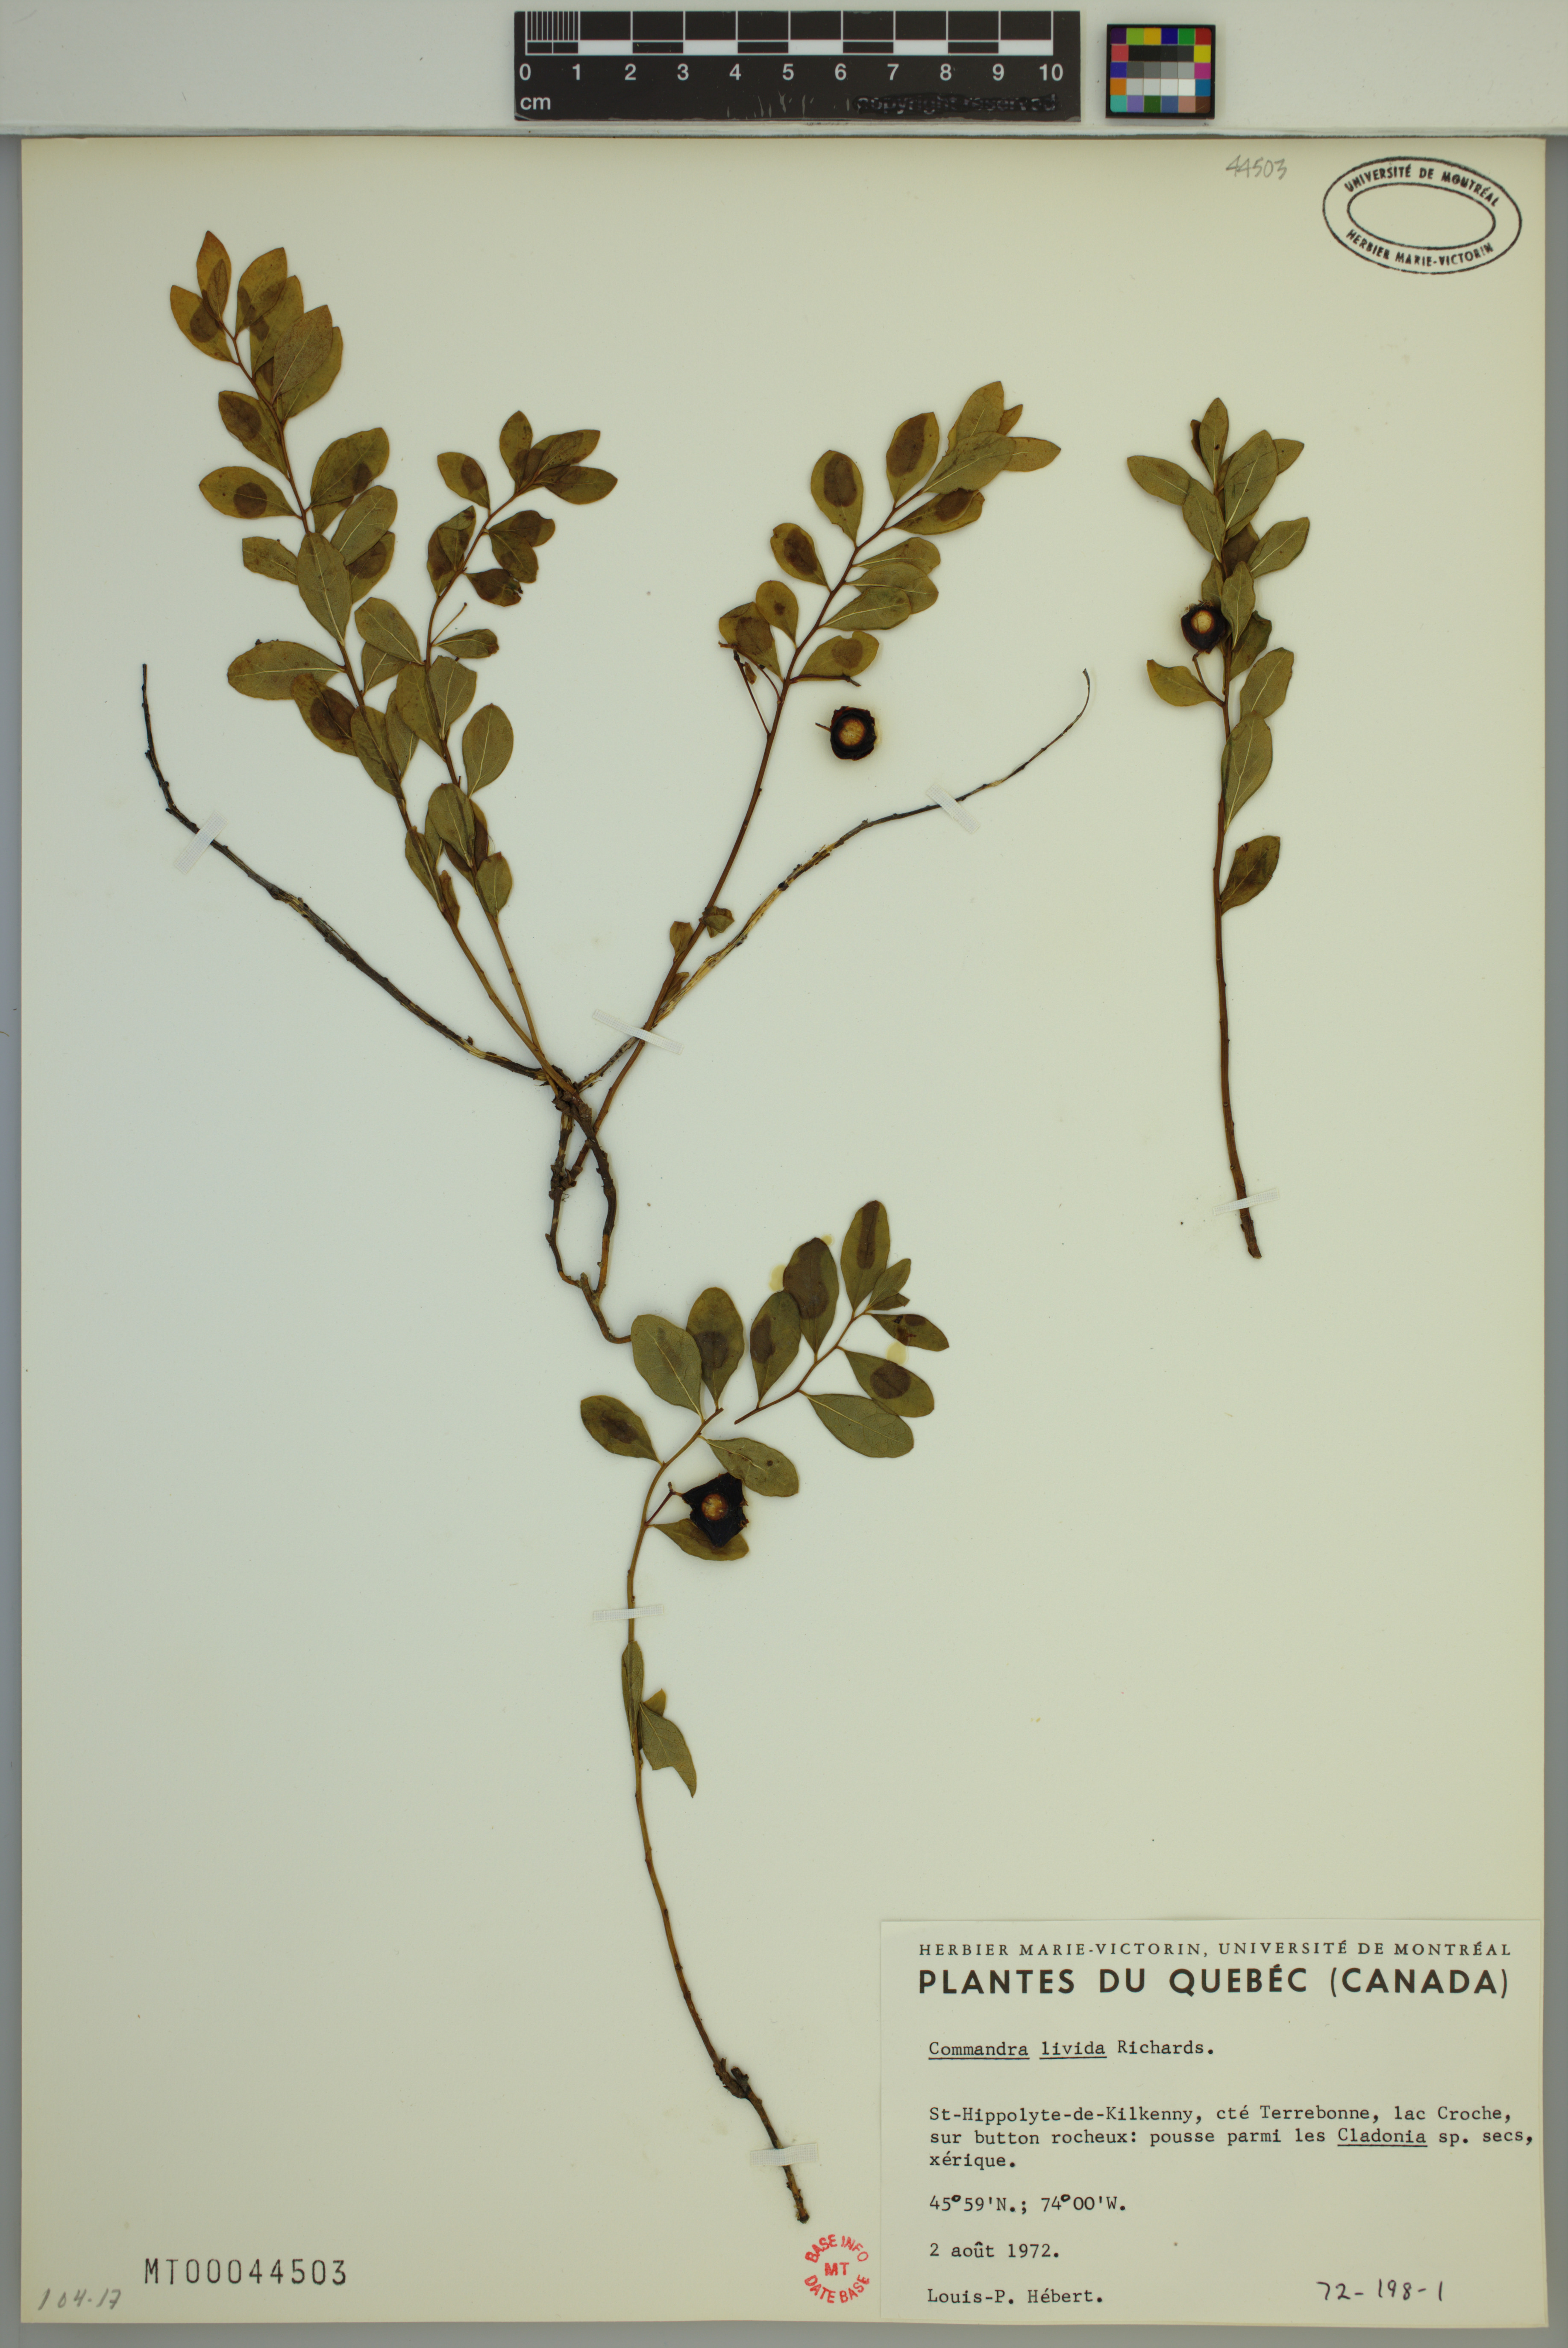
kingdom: Plantae
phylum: Tracheophyta
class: Magnoliopsida
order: Santalales
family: Comandraceae
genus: Geocaulon
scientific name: Geocaulon lividum
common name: Earthberry
